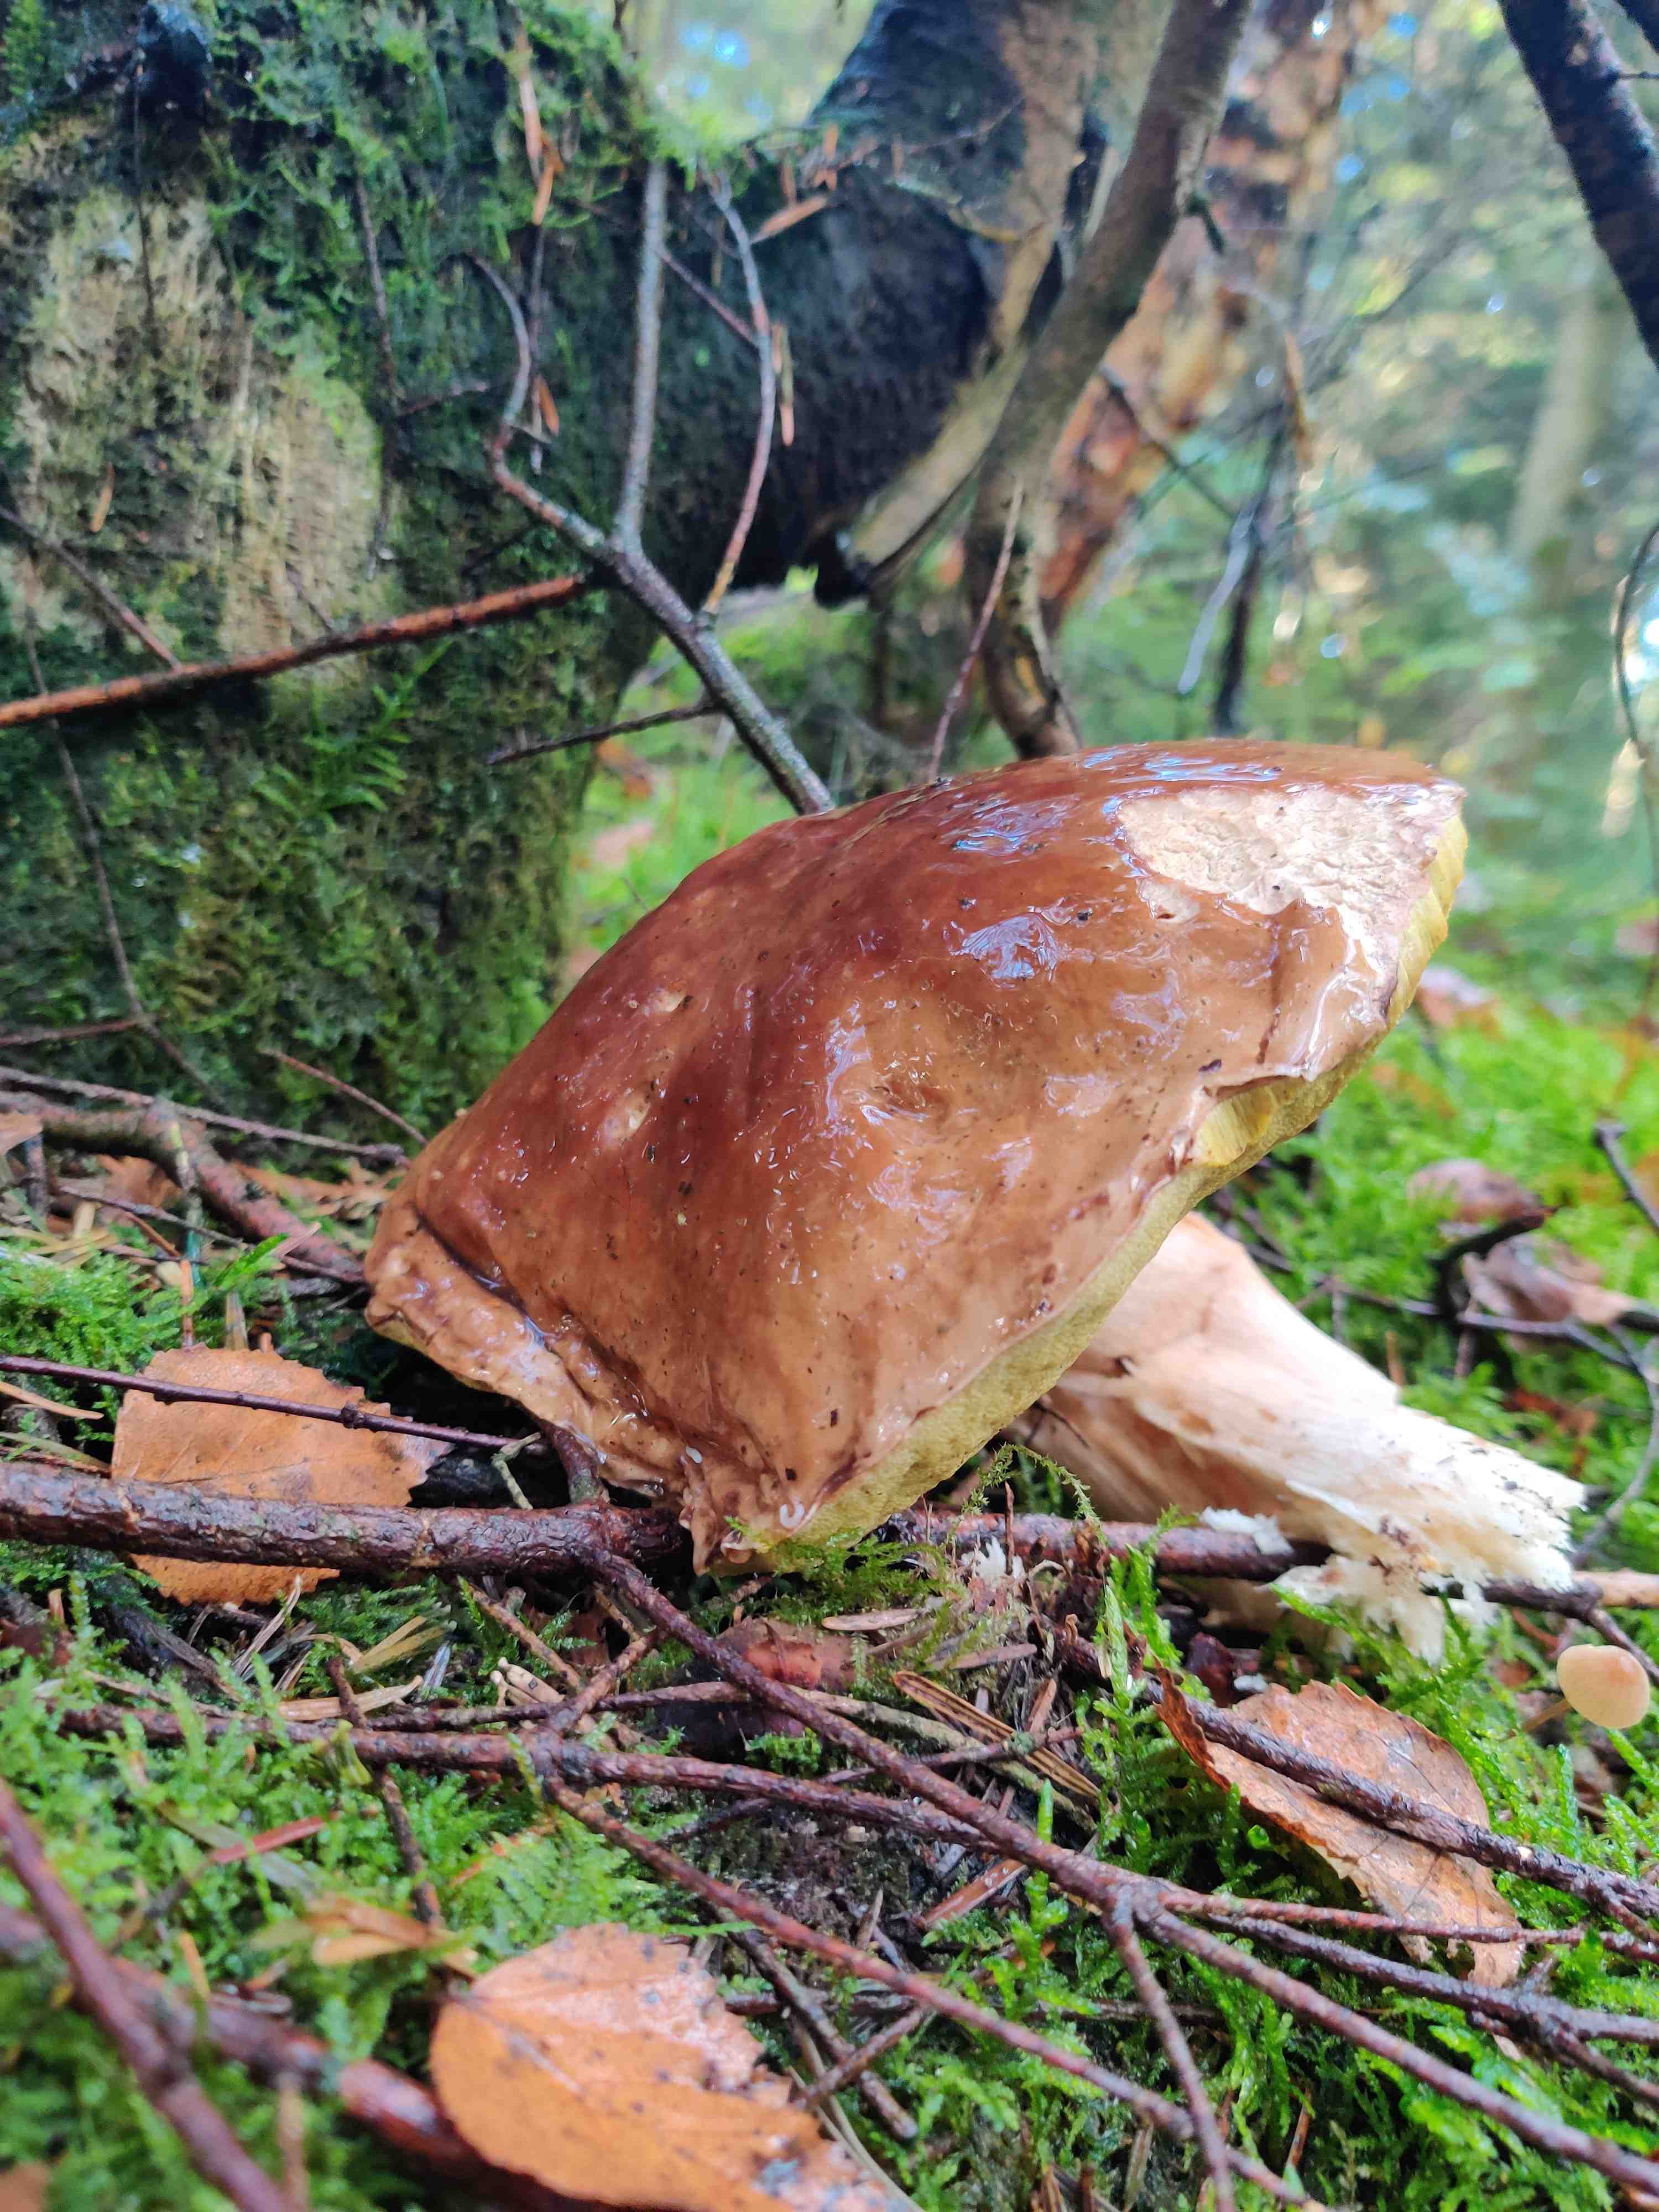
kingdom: Fungi
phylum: Basidiomycota
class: Agaricomycetes
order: Boletales
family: Boletaceae
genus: Boletus
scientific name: Boletus edulis
